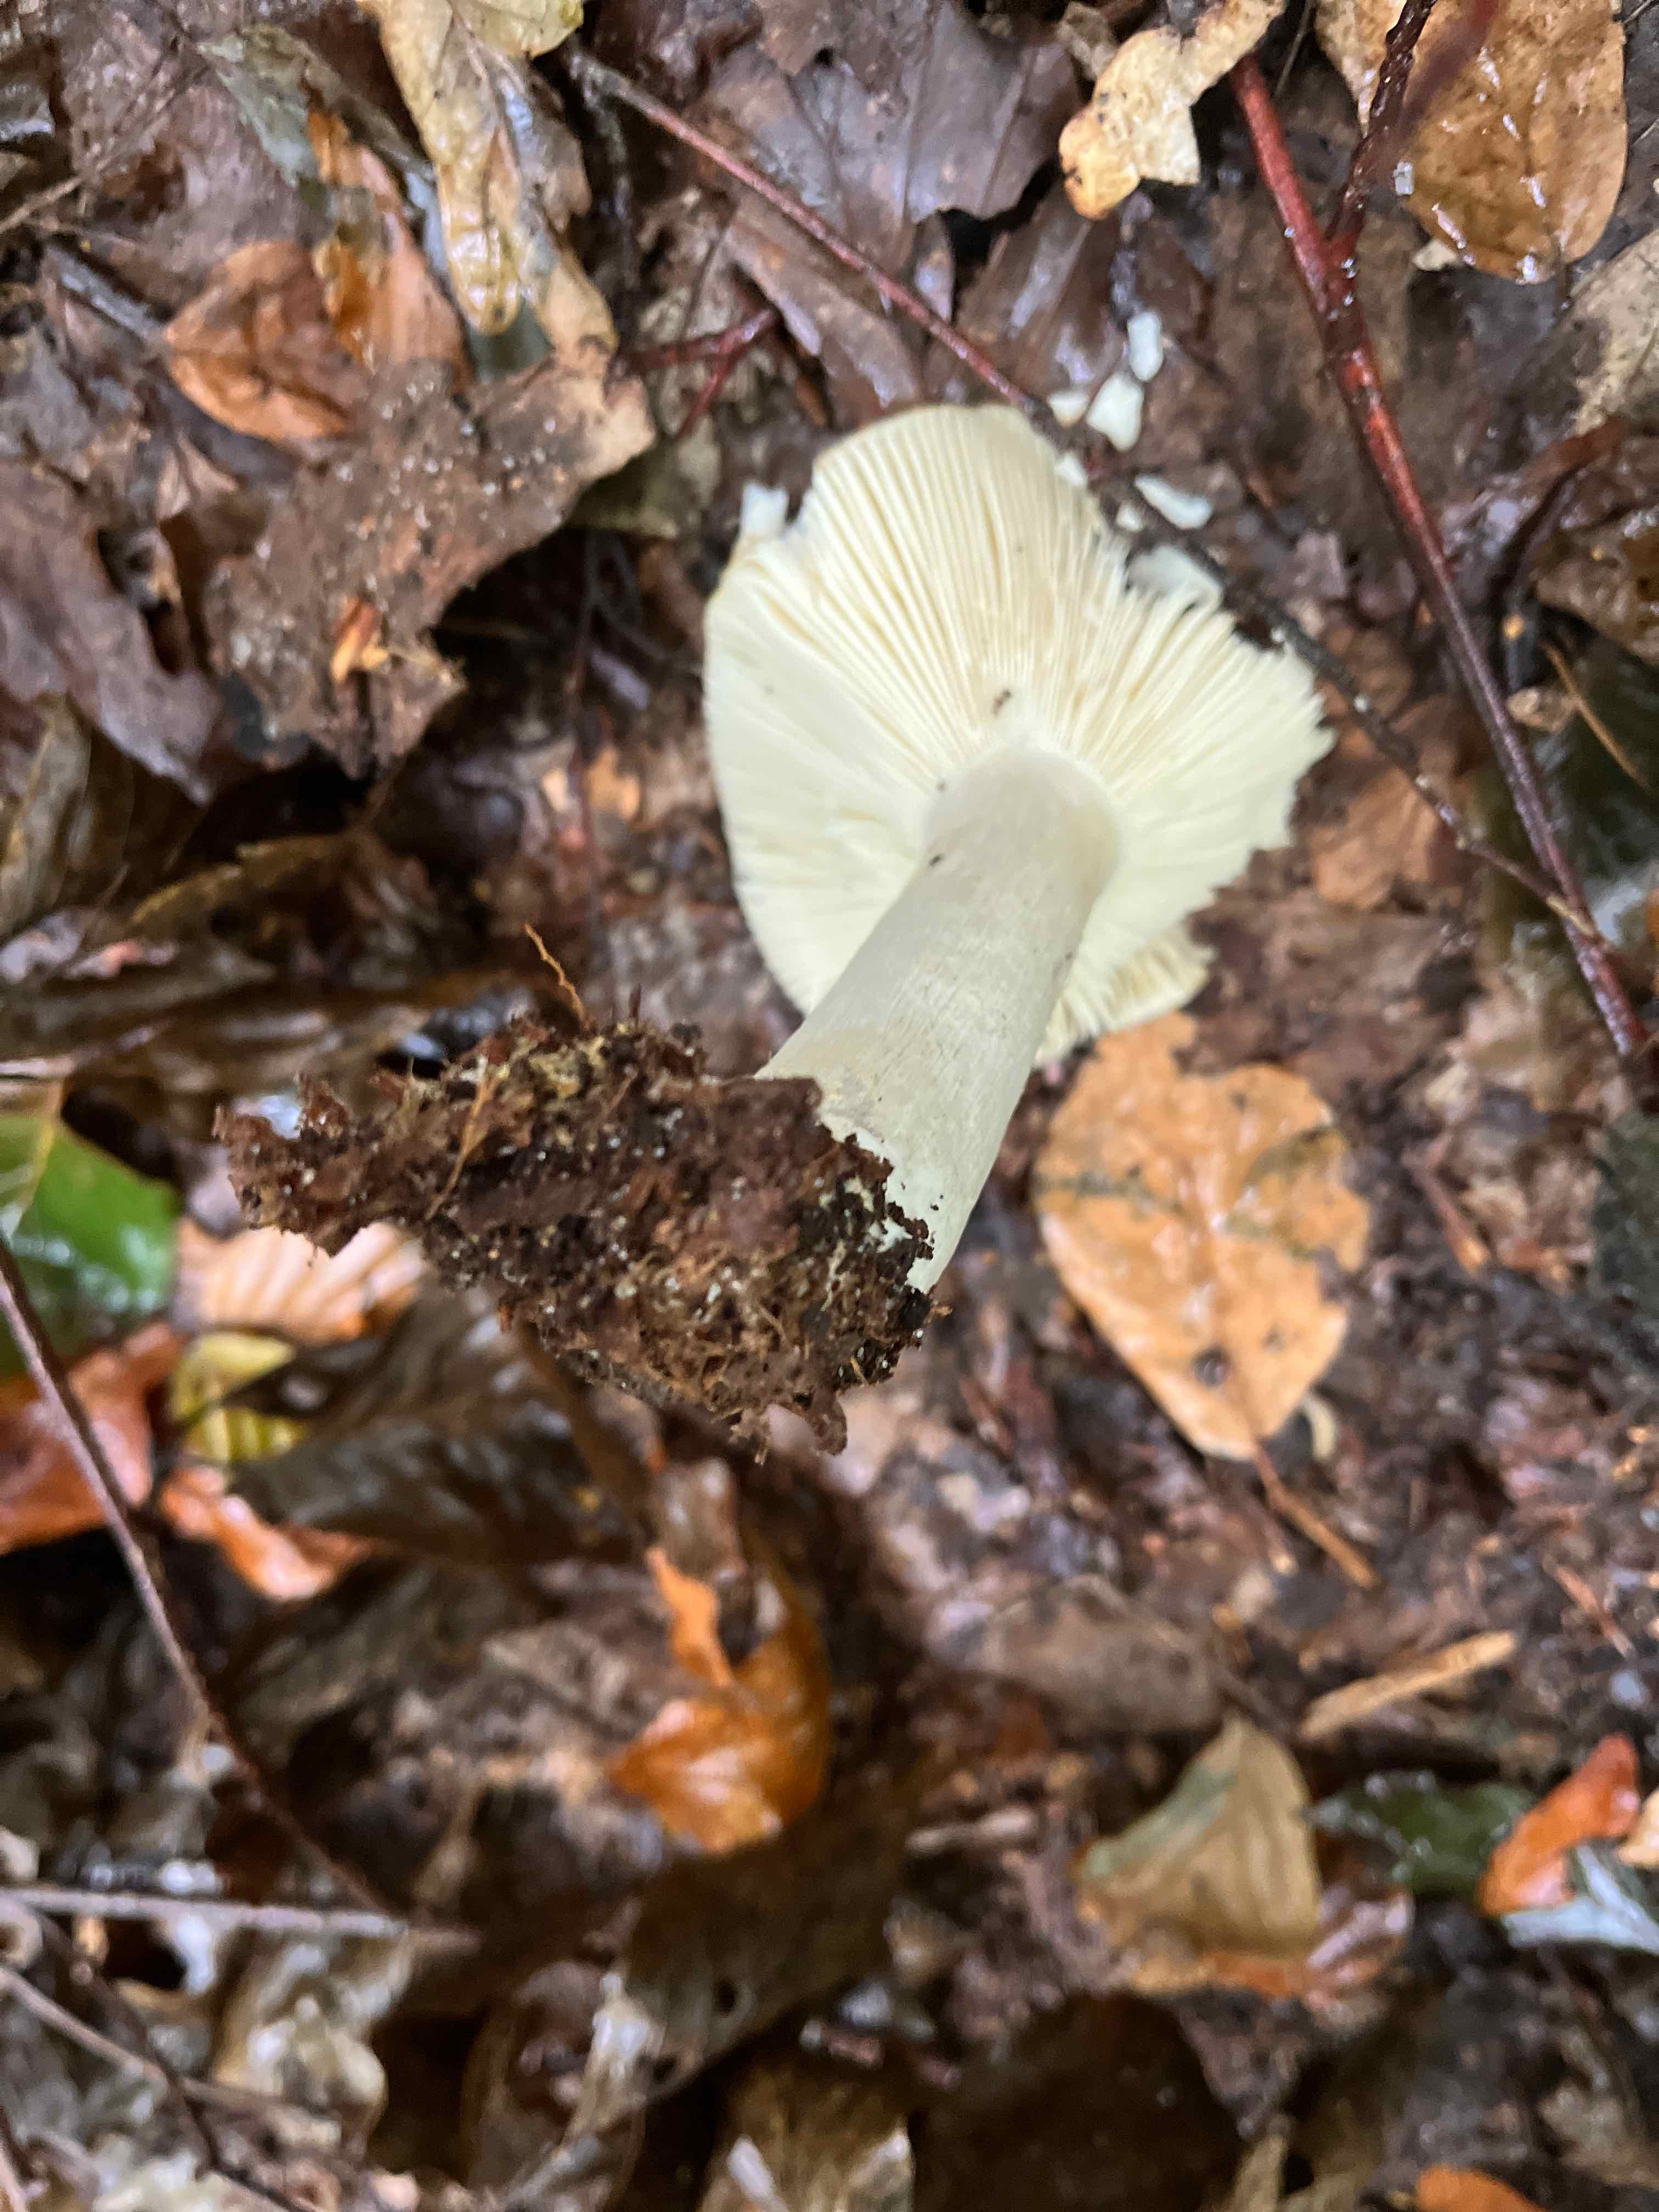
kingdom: Fungi
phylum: Basidiomycota
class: Agaricomycetes
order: Russulales
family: Russulaceae
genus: Russula
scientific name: Russula ochroleuca
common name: okkergul skørhat
